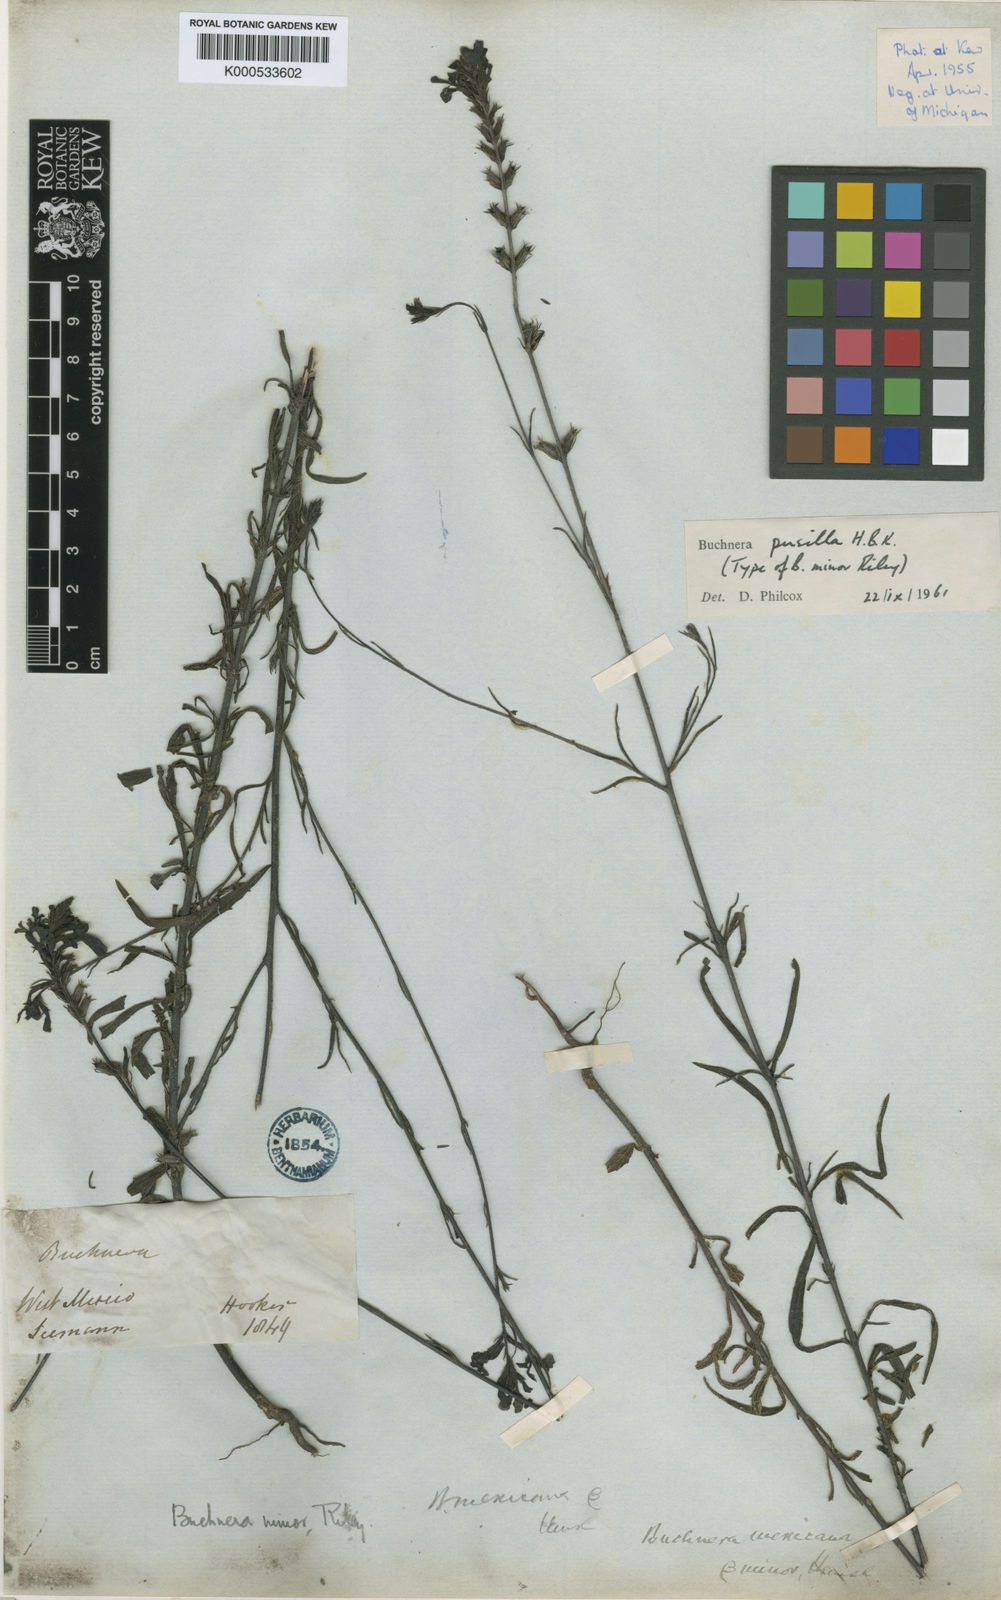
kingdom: Plantae
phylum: Tracheophyta
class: Magnoliopsida
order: Lamiales
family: Orobanchaceae
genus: Buchnera
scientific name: Buchnera pusilla
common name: Pygmy bluehearts
